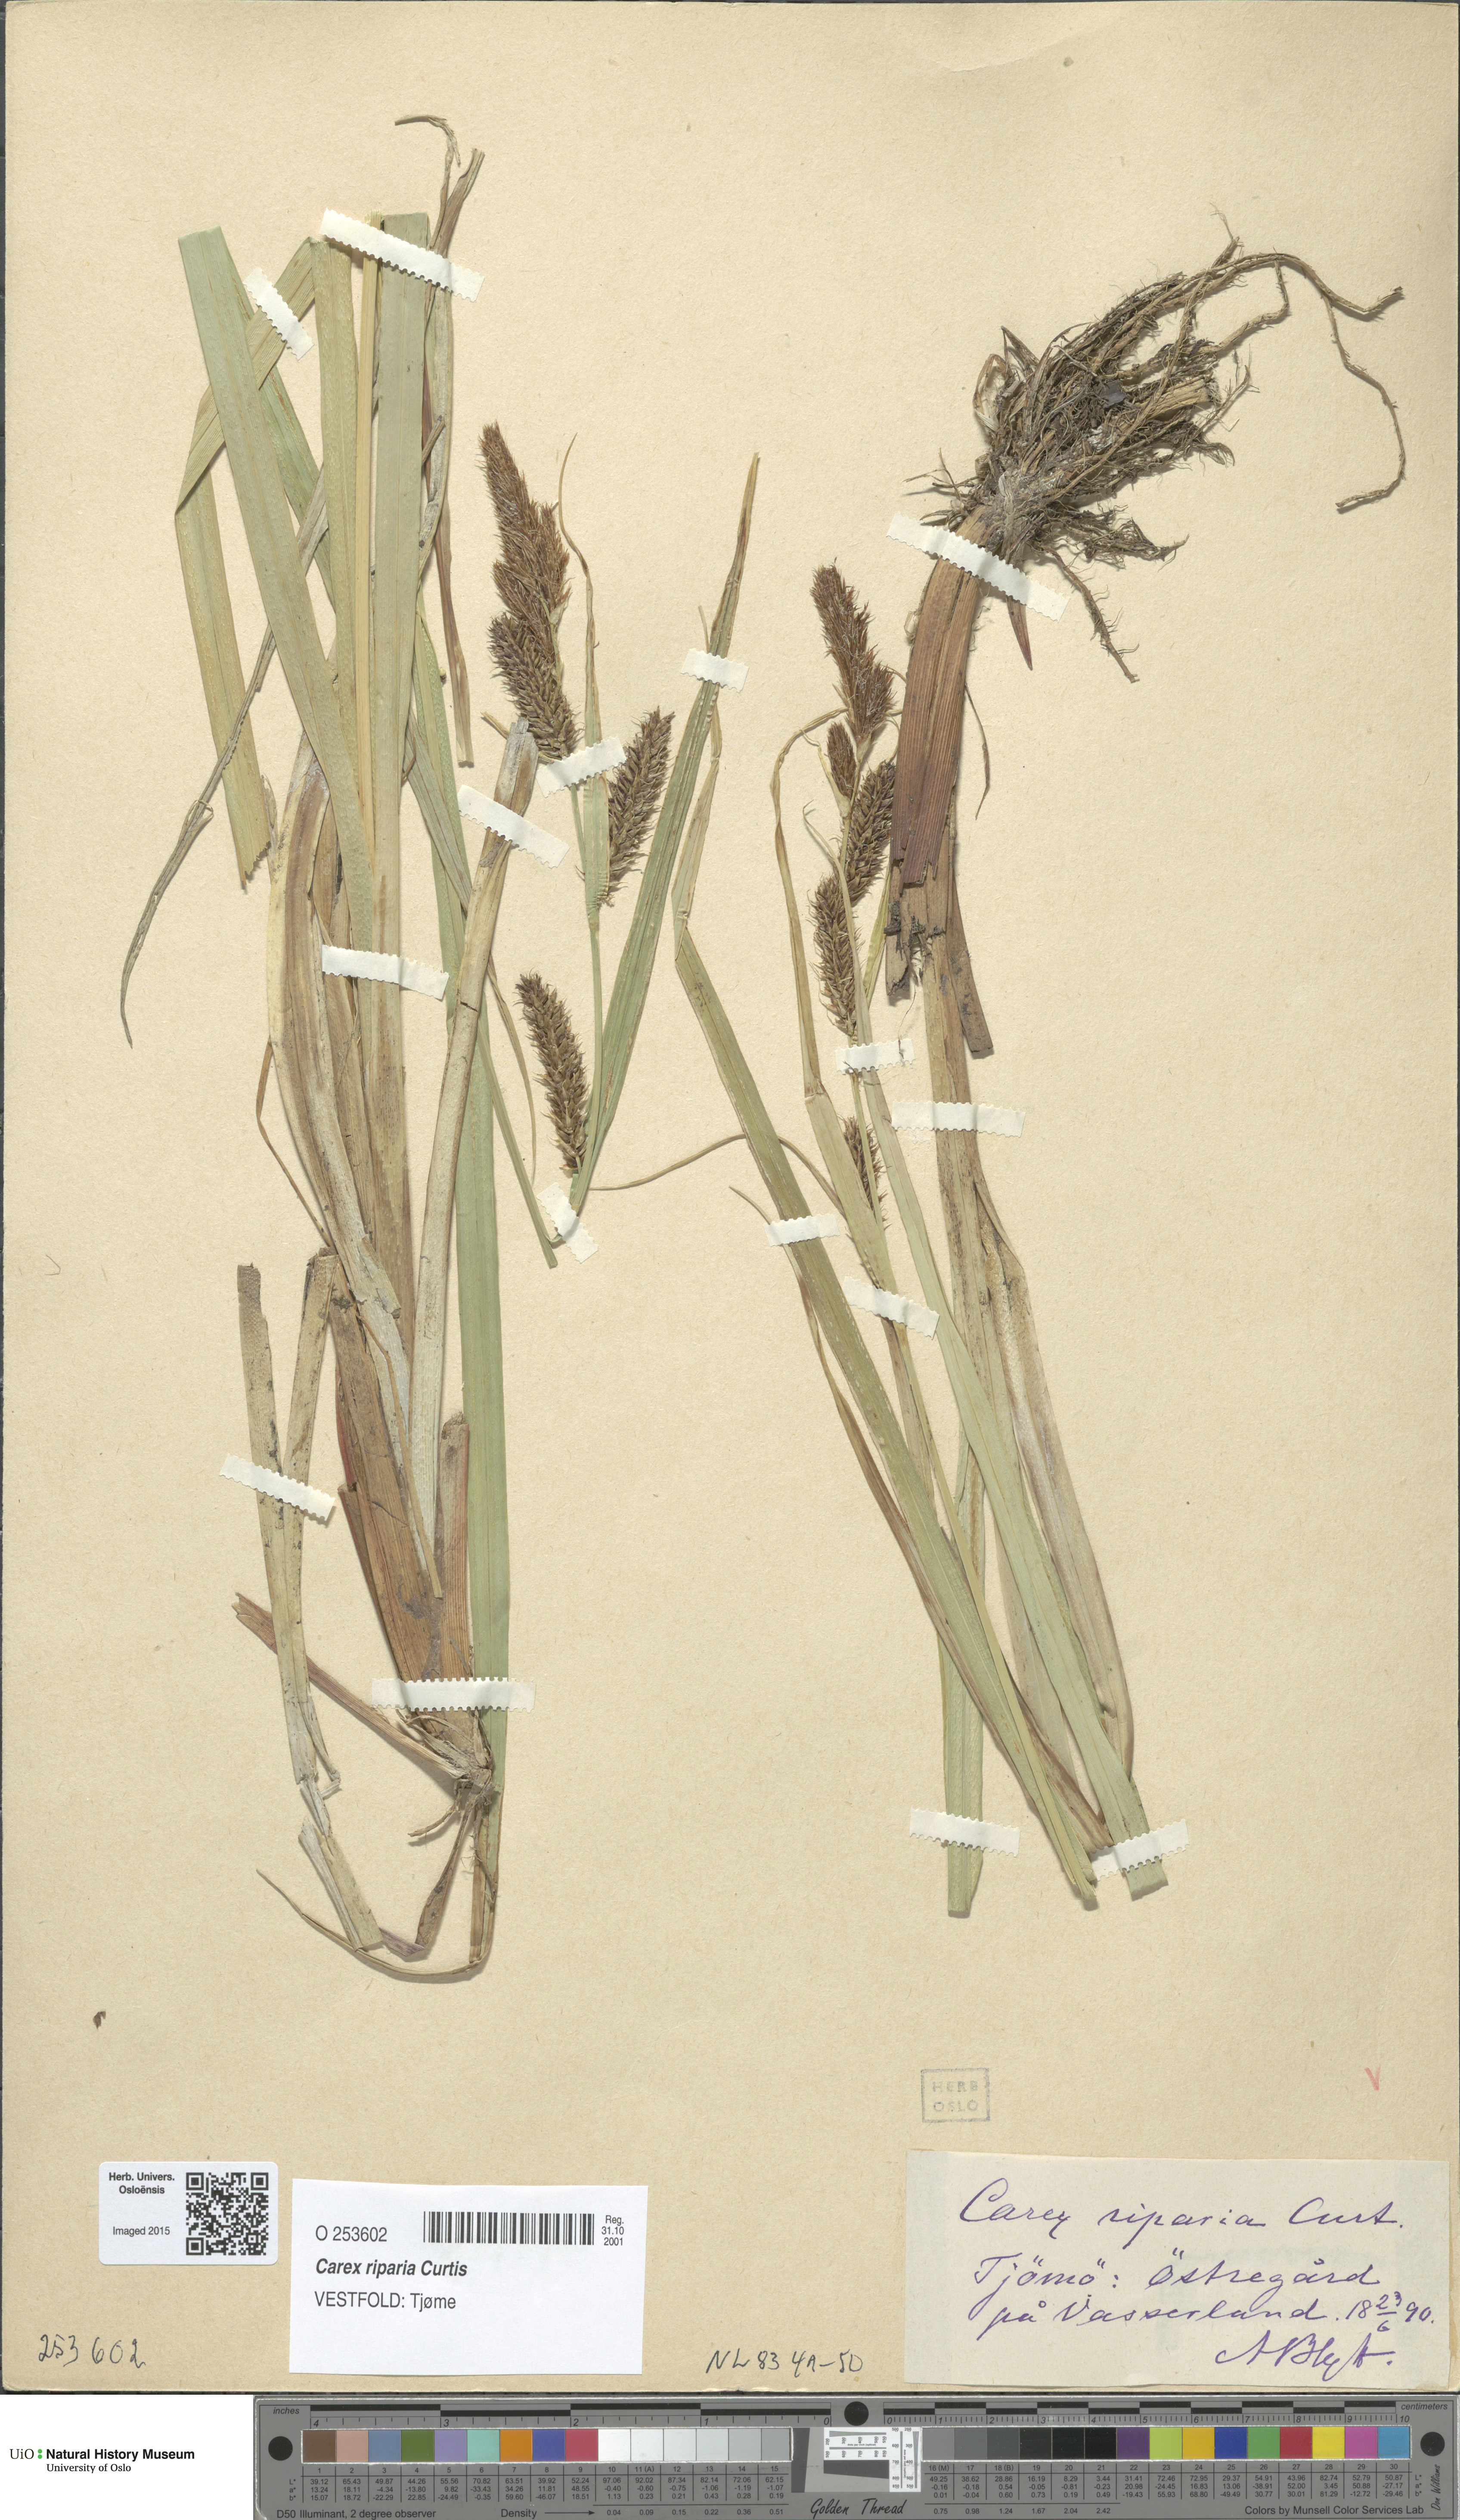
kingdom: Plantae
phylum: Tracheophyta
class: Liliopsida
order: Poales
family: Cyperaceae
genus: Carex
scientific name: Carex riparia
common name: Greater pond-sedge
